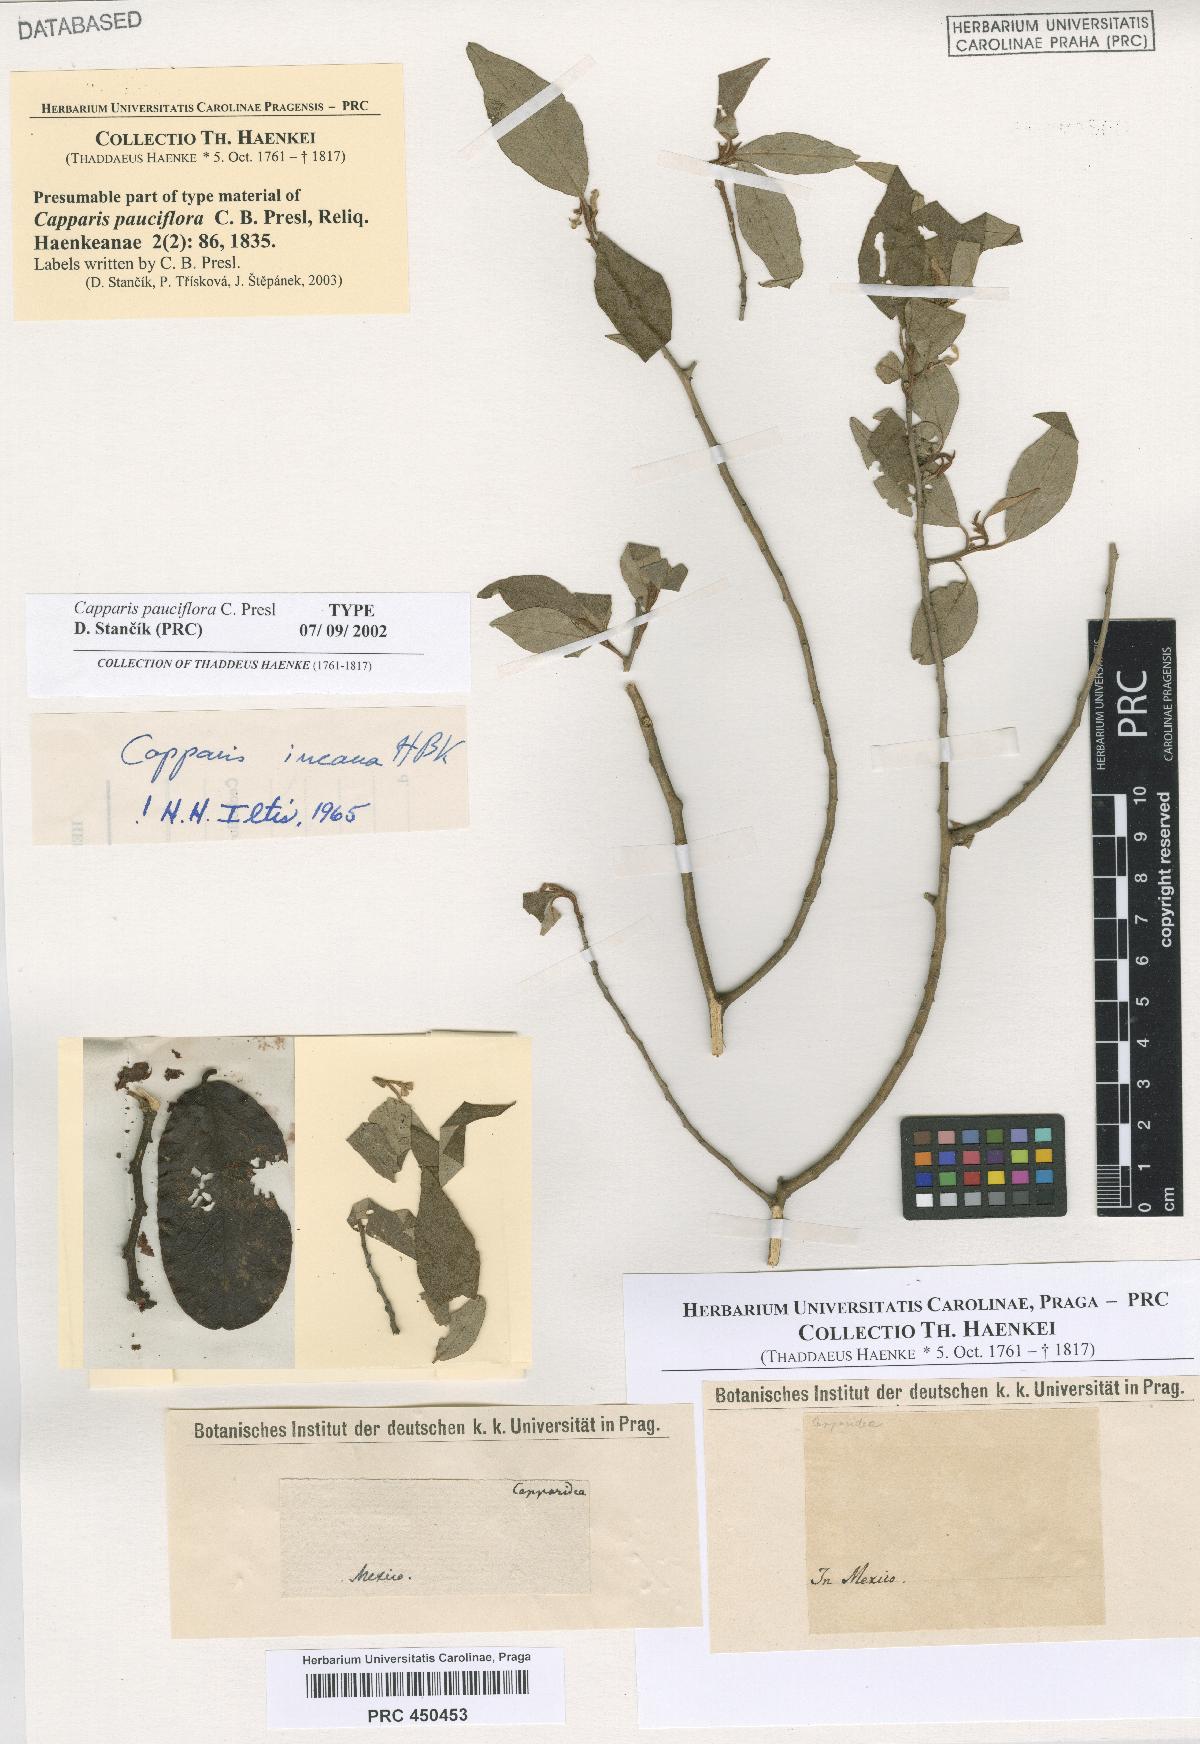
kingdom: Plantae
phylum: Tracheophyta
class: Magnoliopsida
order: Brassicales
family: Capparaceae
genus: Quadrella
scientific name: Quadrella incana
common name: Hoary caper
